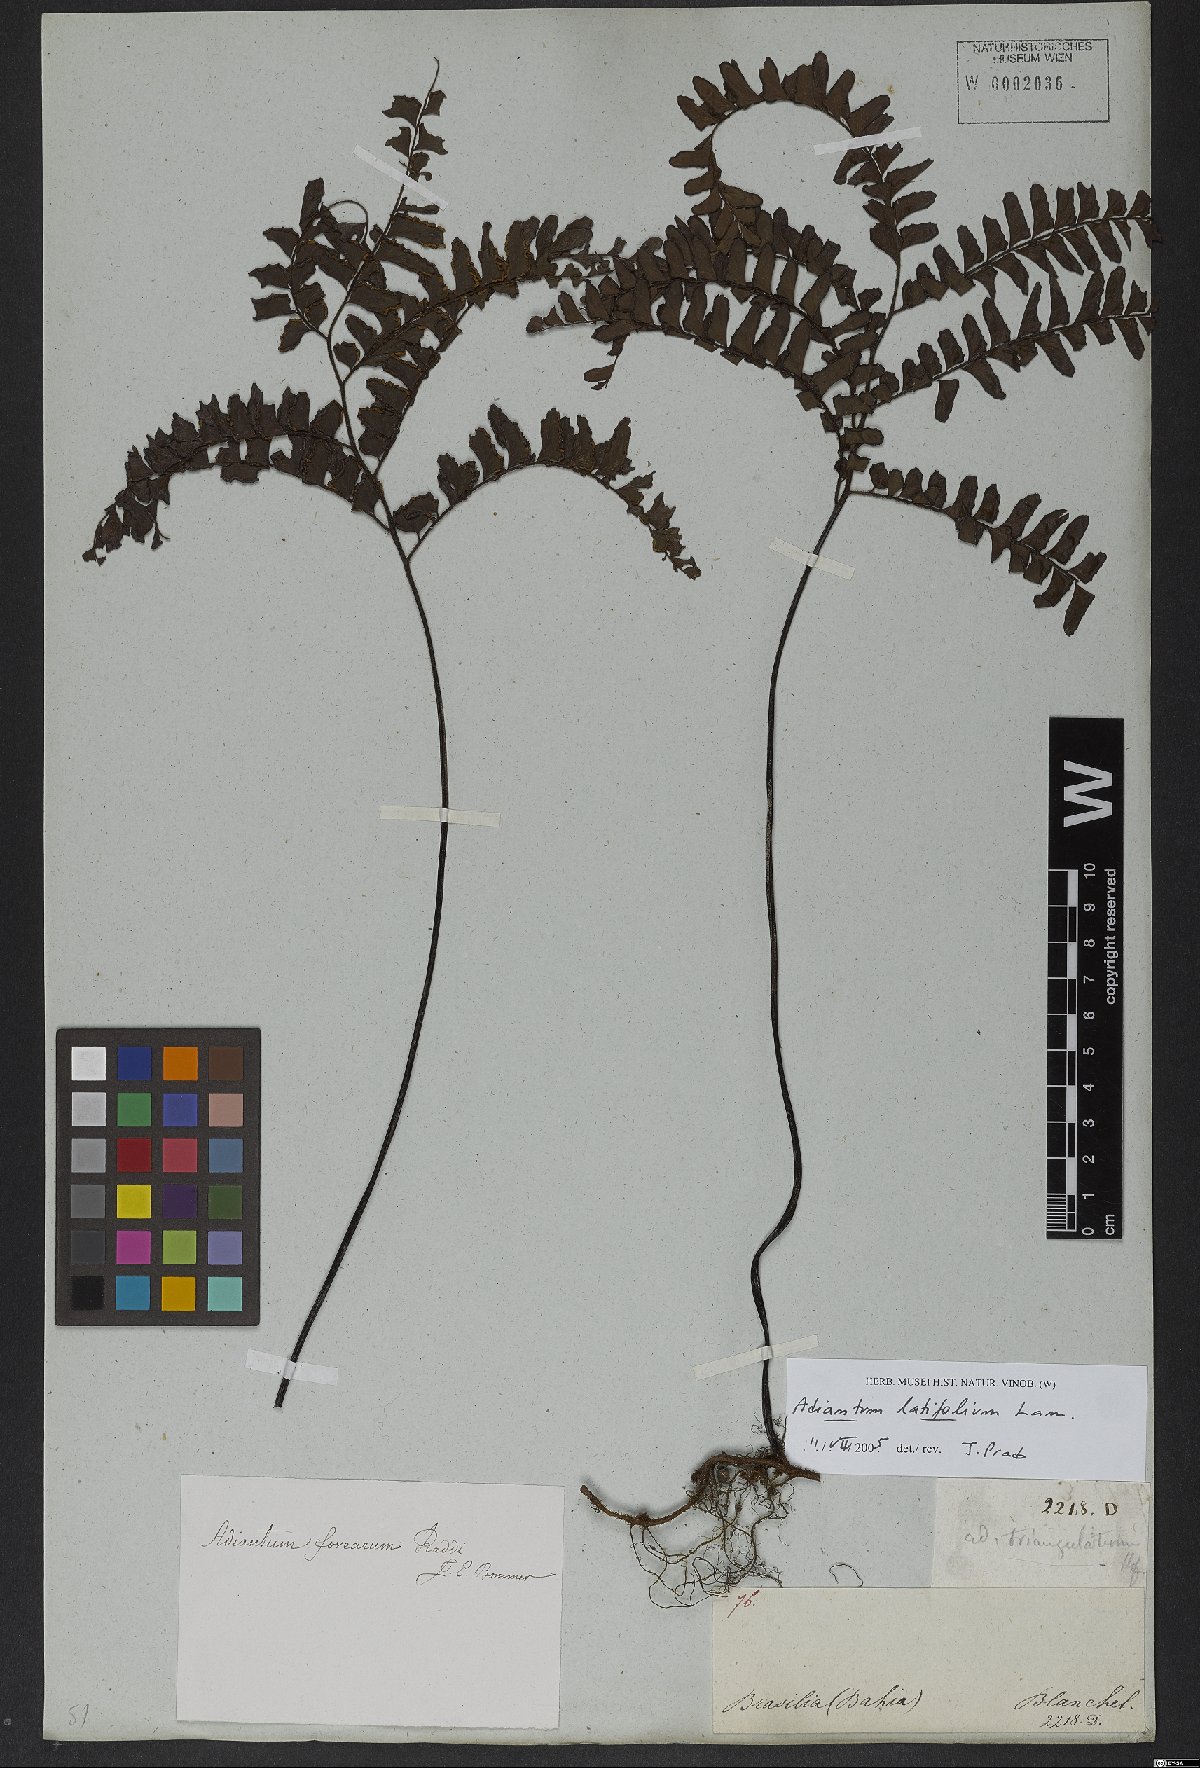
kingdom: Plantae
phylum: Tracheophyta
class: Polypodiopsida
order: Polypodiales
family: Pteridaceae
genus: Adiantum
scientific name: Adiantum latifolium
